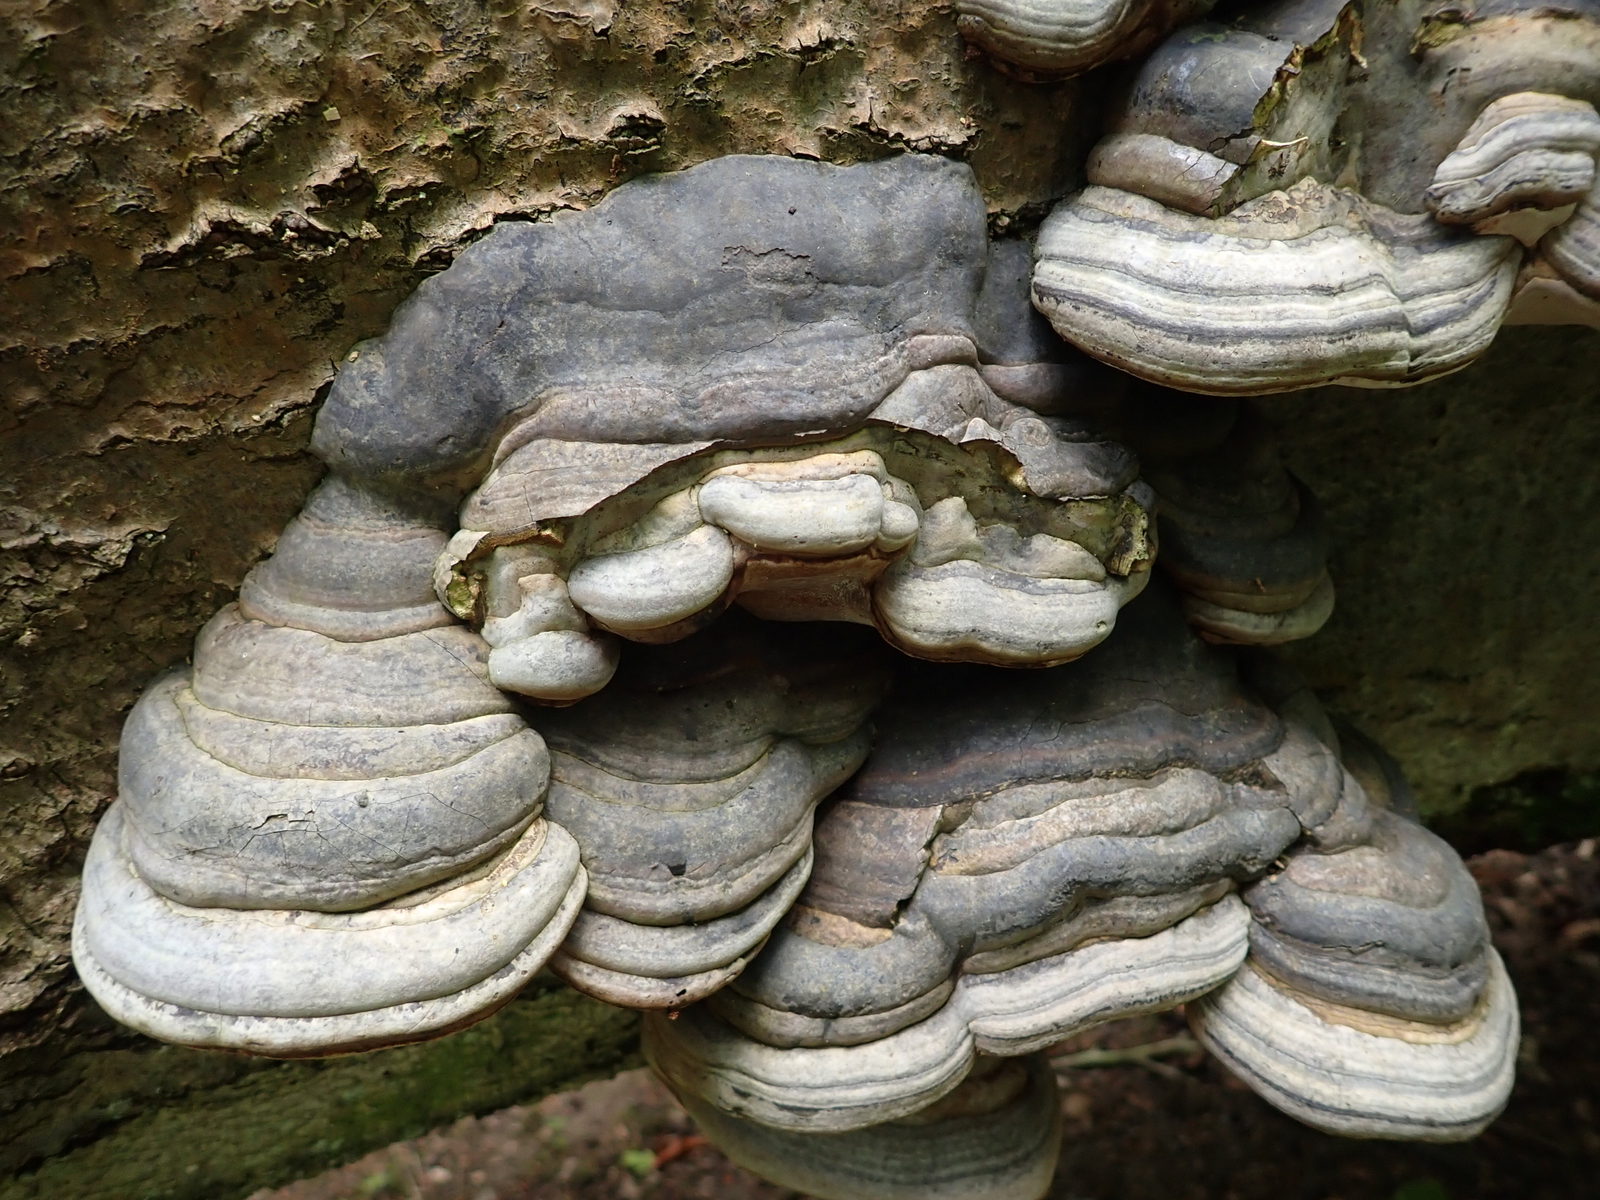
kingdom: Fungi
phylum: Basidiomycota
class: Agaricomycetes
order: Polyporales
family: Polyporaceae
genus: Fomes
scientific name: Fomes fomentarius
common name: tøndersvamp
